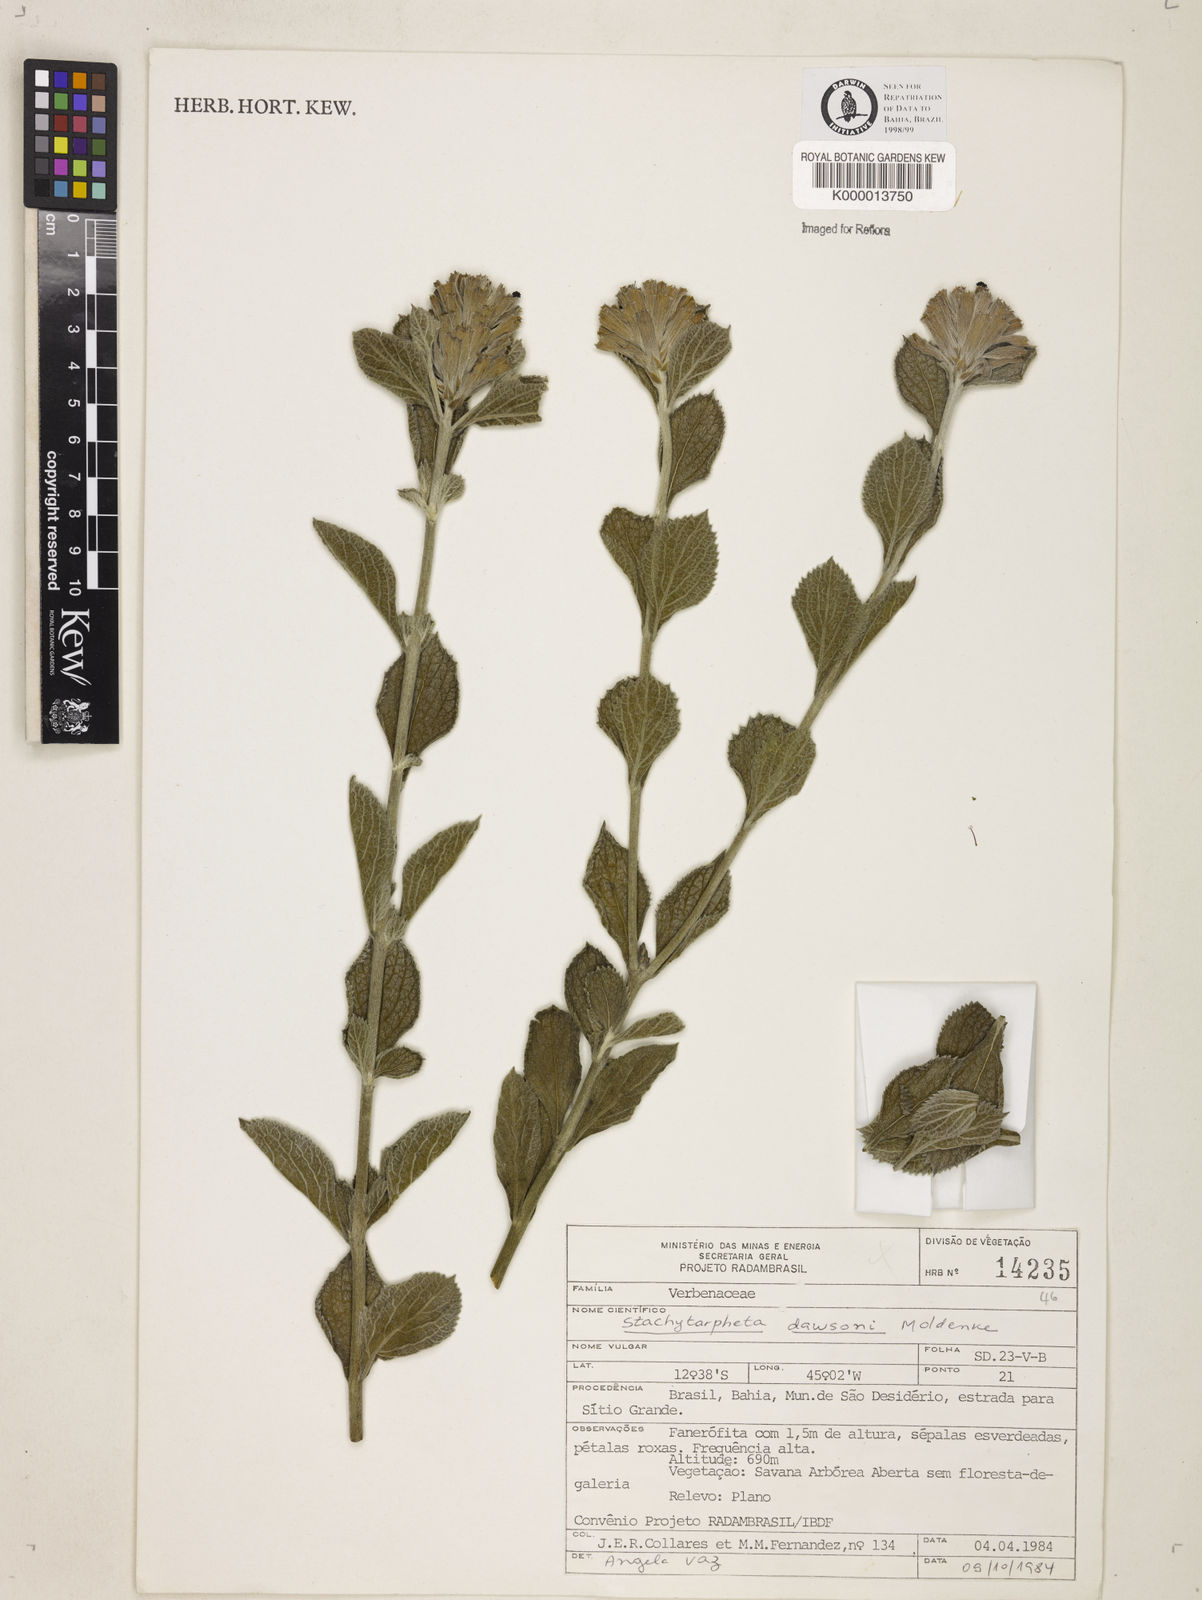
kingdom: Plantae
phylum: Tracheophyta
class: Magnoliopsida
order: Lamiales
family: Verbenaceae
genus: Stachytarpheta
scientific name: Stachytarpheta mollis
